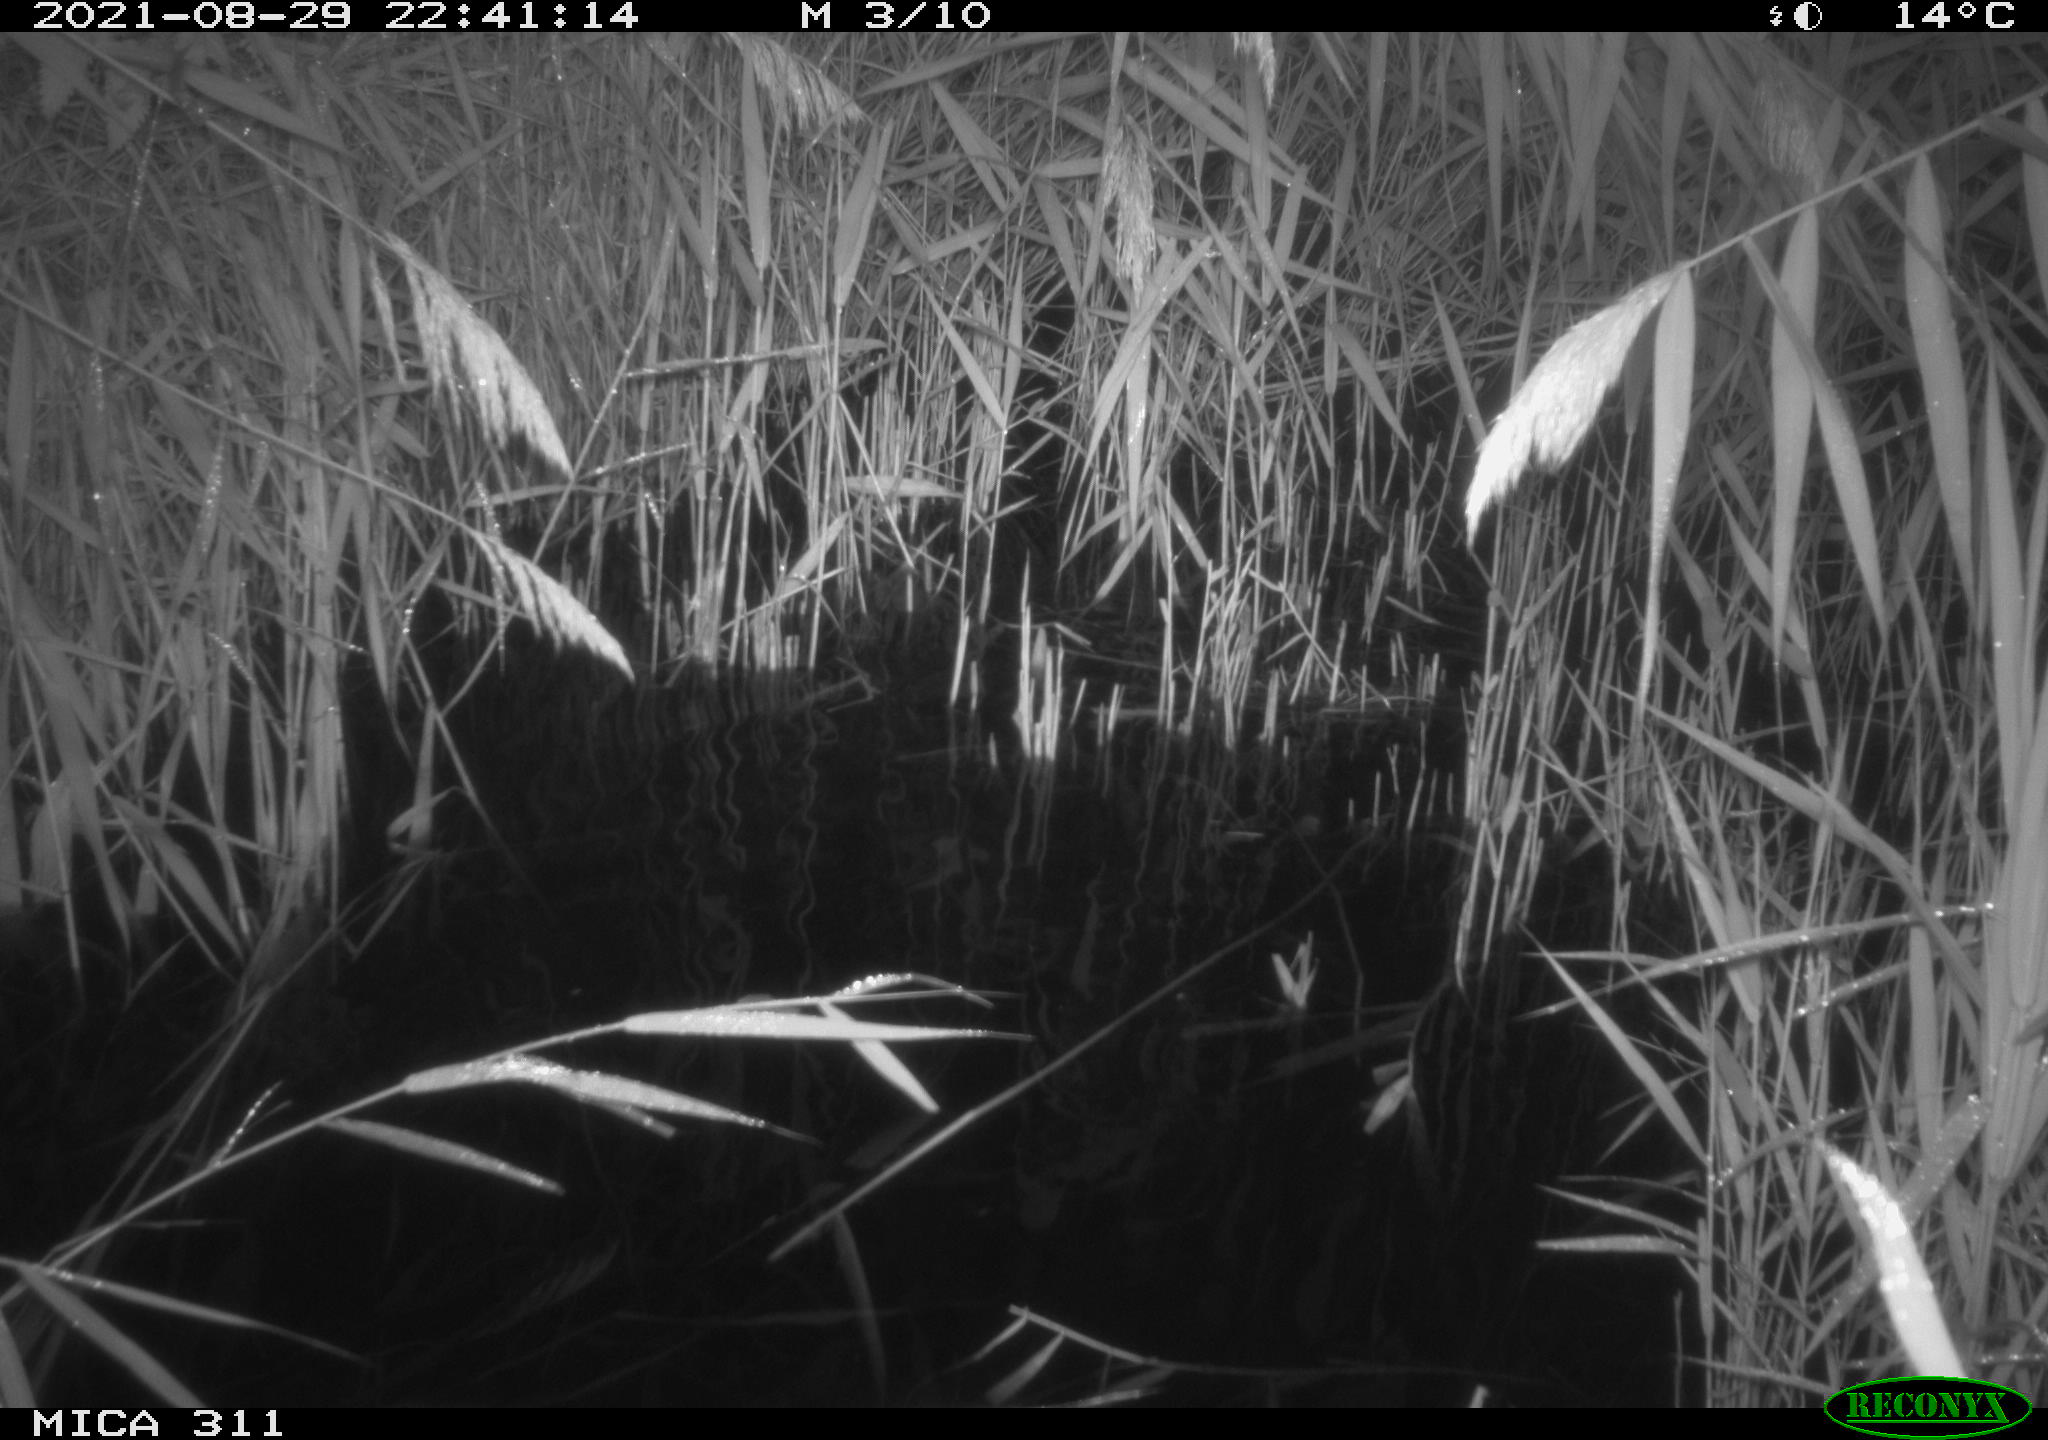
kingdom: Animalia
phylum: Chordata
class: Mammalia
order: Rodentia
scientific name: Rodentia
